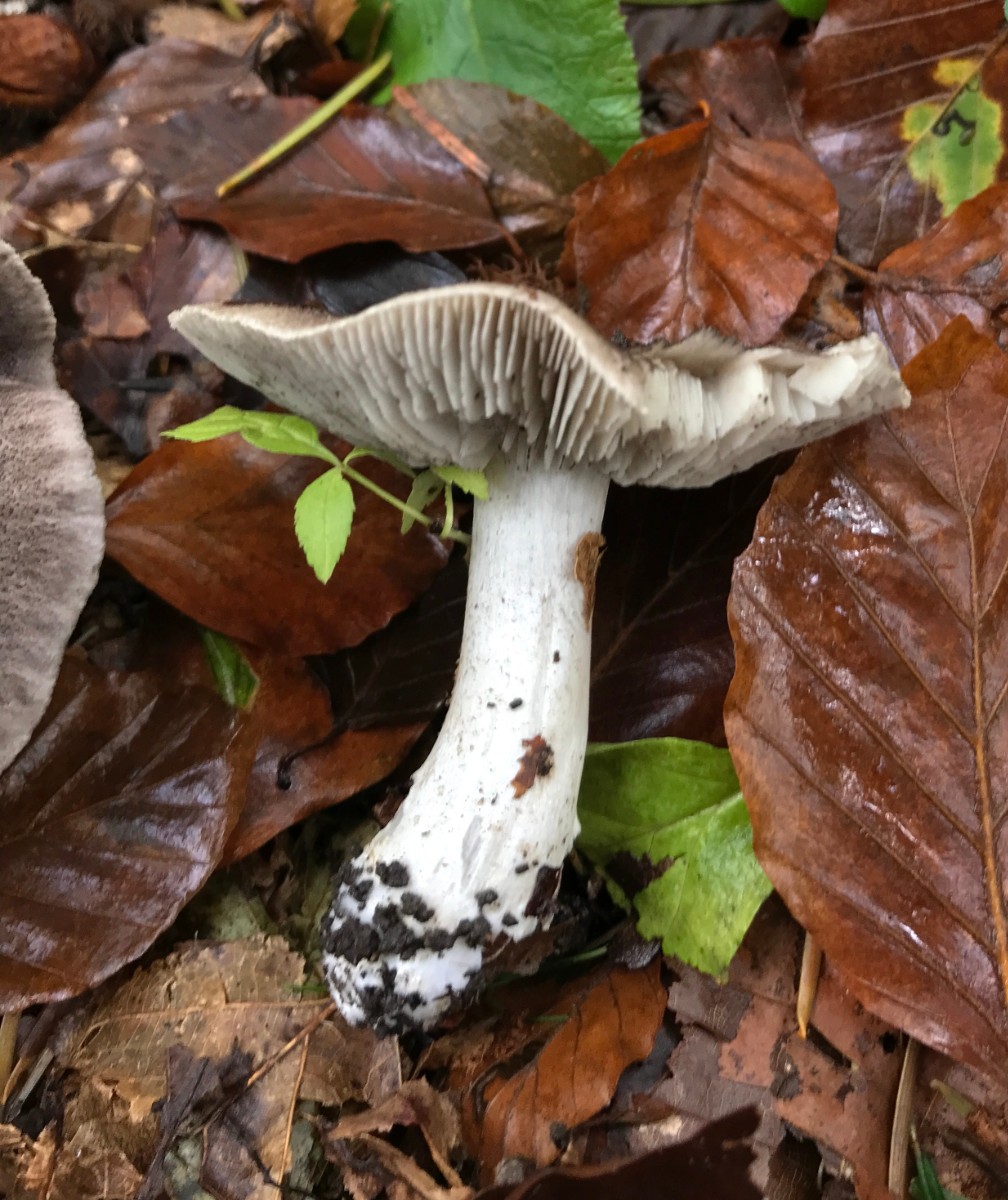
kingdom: Fungi
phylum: Basidiomycota
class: Agaricomycetes
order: Agaricales
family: Tricholomataceae
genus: Tricholoma
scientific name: Tricholoma orirubens
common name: rødbladet ridderhat
